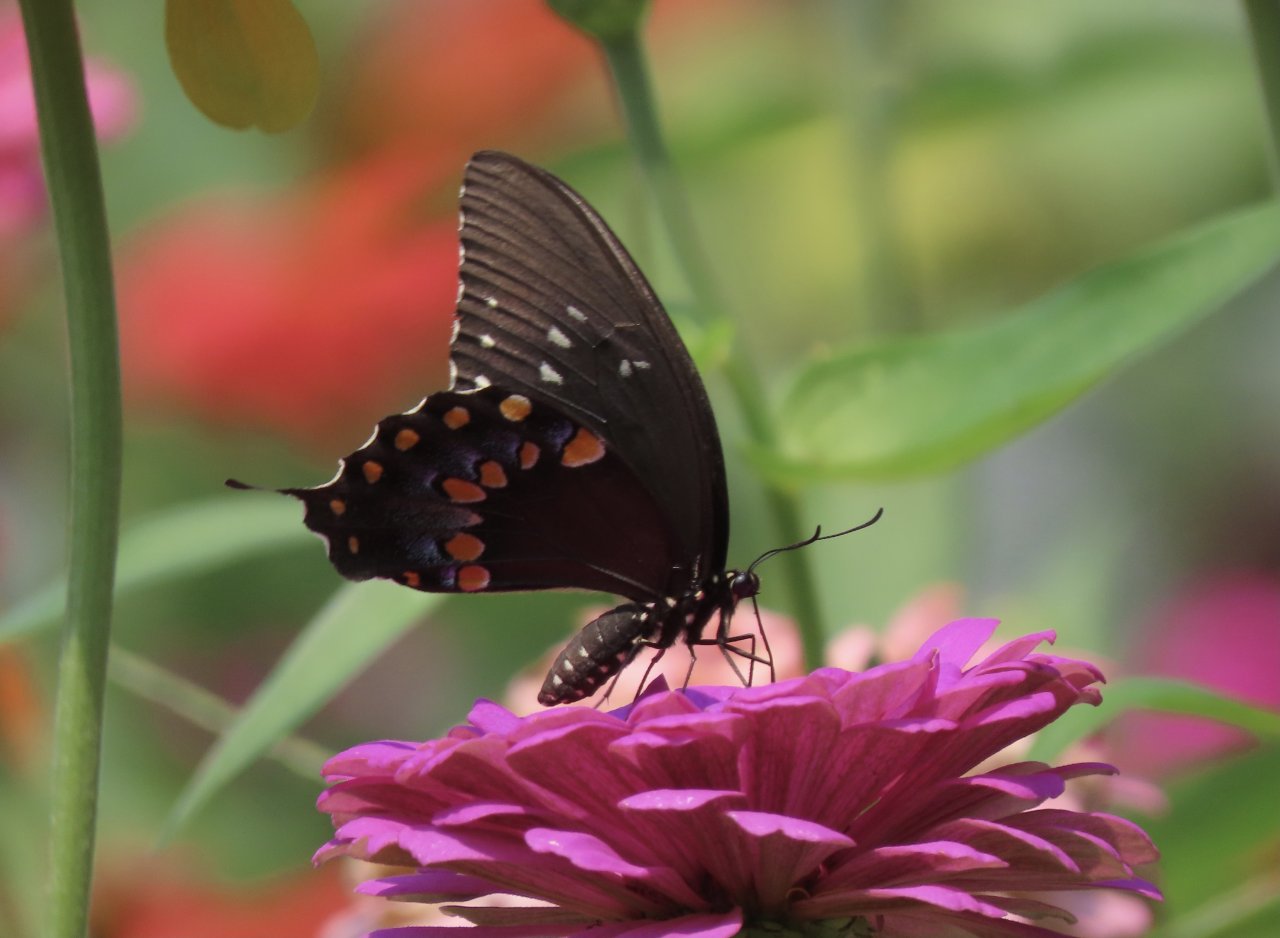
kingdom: Animalia
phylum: Arthropoda
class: Insecta
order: Lepidoptera
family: Papilionidae
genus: Pterourus
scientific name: Pterourus troilus
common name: Spicebush Swallowtail
